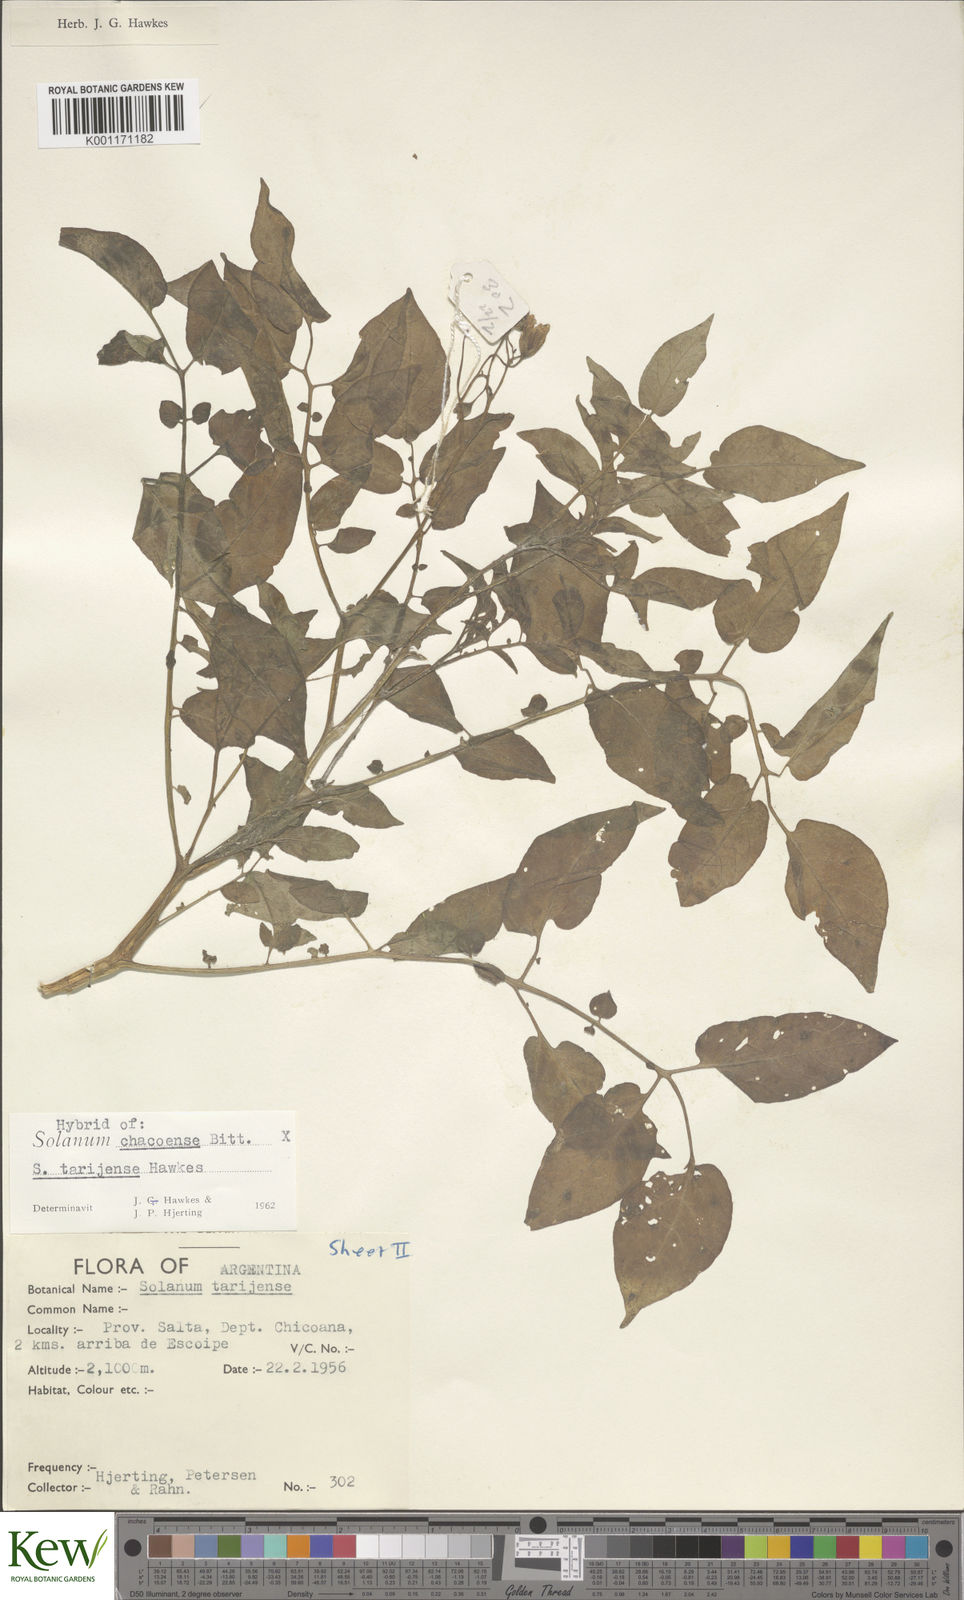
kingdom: Plantae
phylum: Tracheophyta
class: Magnoliopsida
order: Solanales
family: Solanaceae
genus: Solanum
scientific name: Solanum chacoense
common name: Chaco potato
